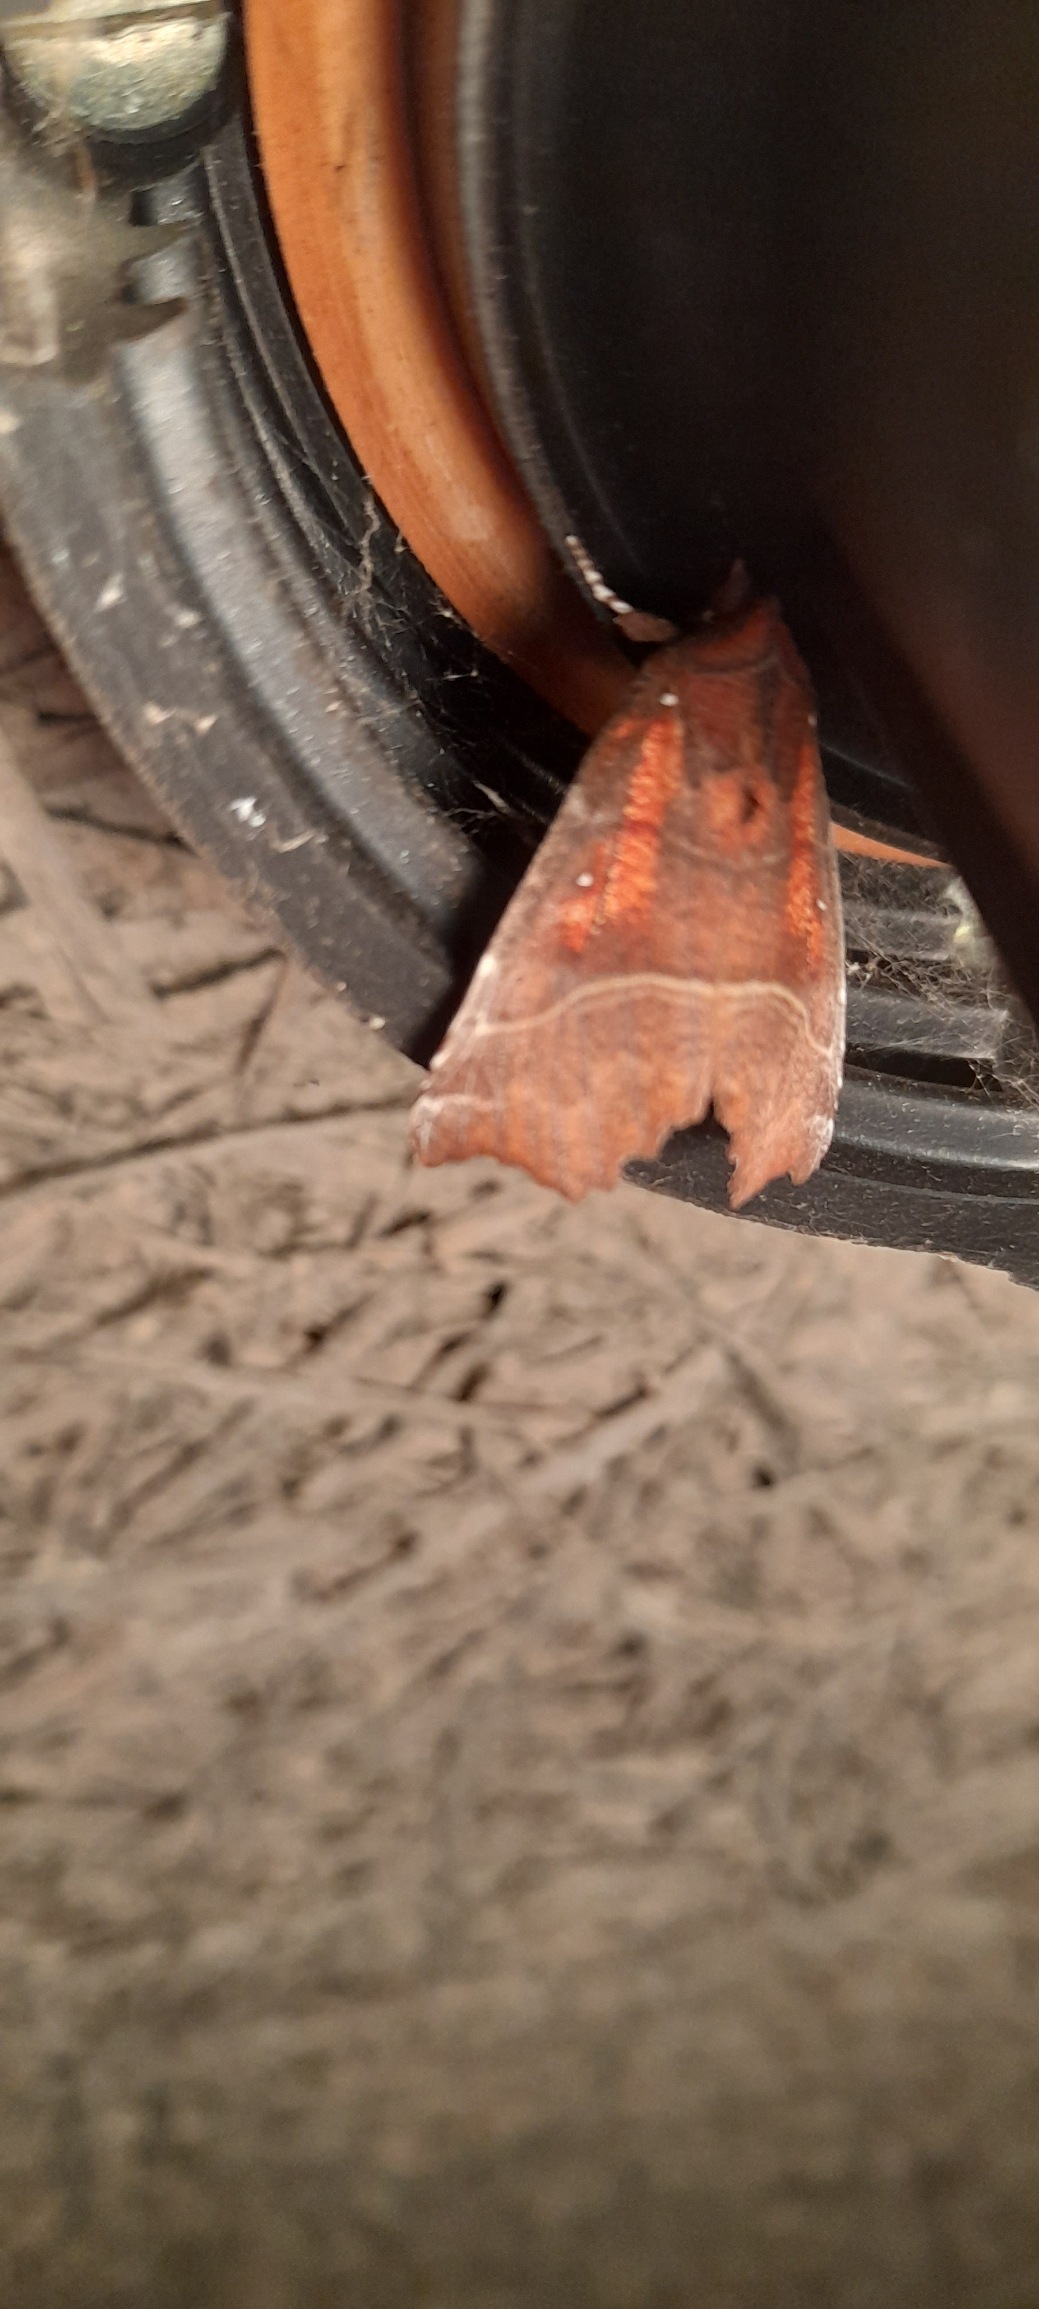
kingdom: Animalia
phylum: Arthropoda
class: Insecta
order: Lepidoptera
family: Erebidae
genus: Scoliopteryx
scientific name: Scoliopteryx libatrix
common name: Husmoderugle
